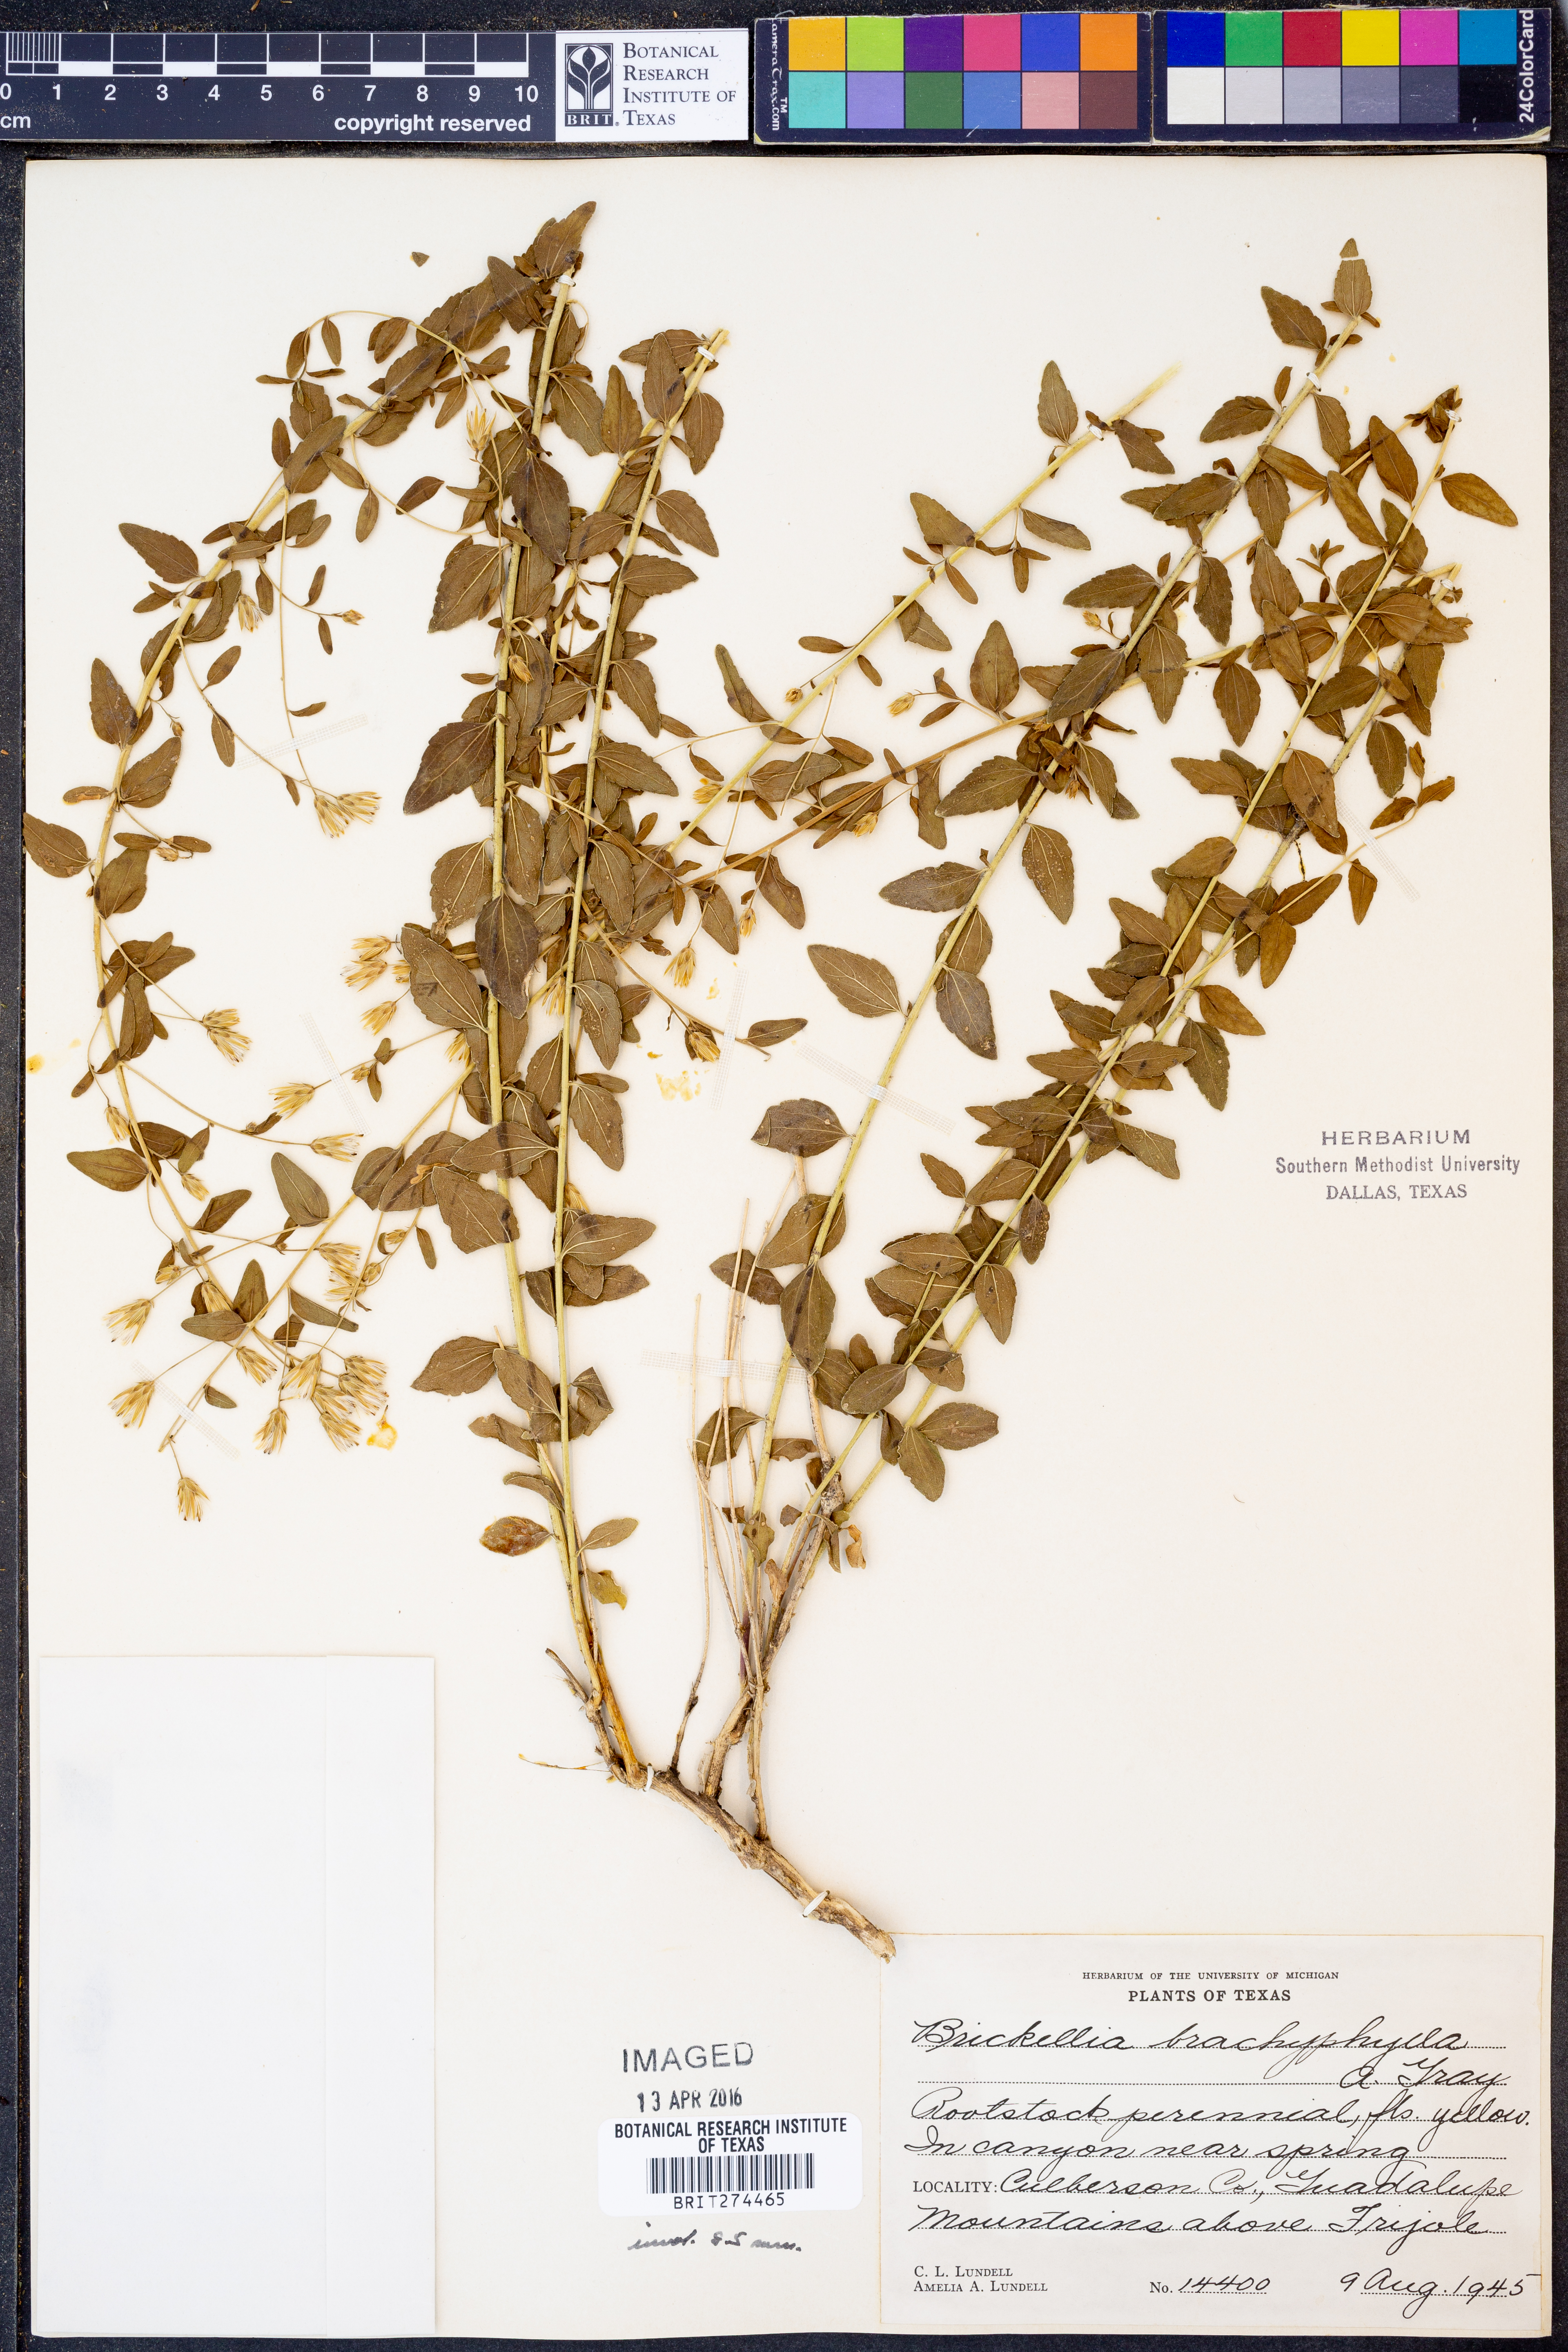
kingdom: Plantae
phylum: Tracheophyta
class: Magnoliopsida
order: Asterales
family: Asteraceae
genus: Brickellia
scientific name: Brickellia brachyphylla
